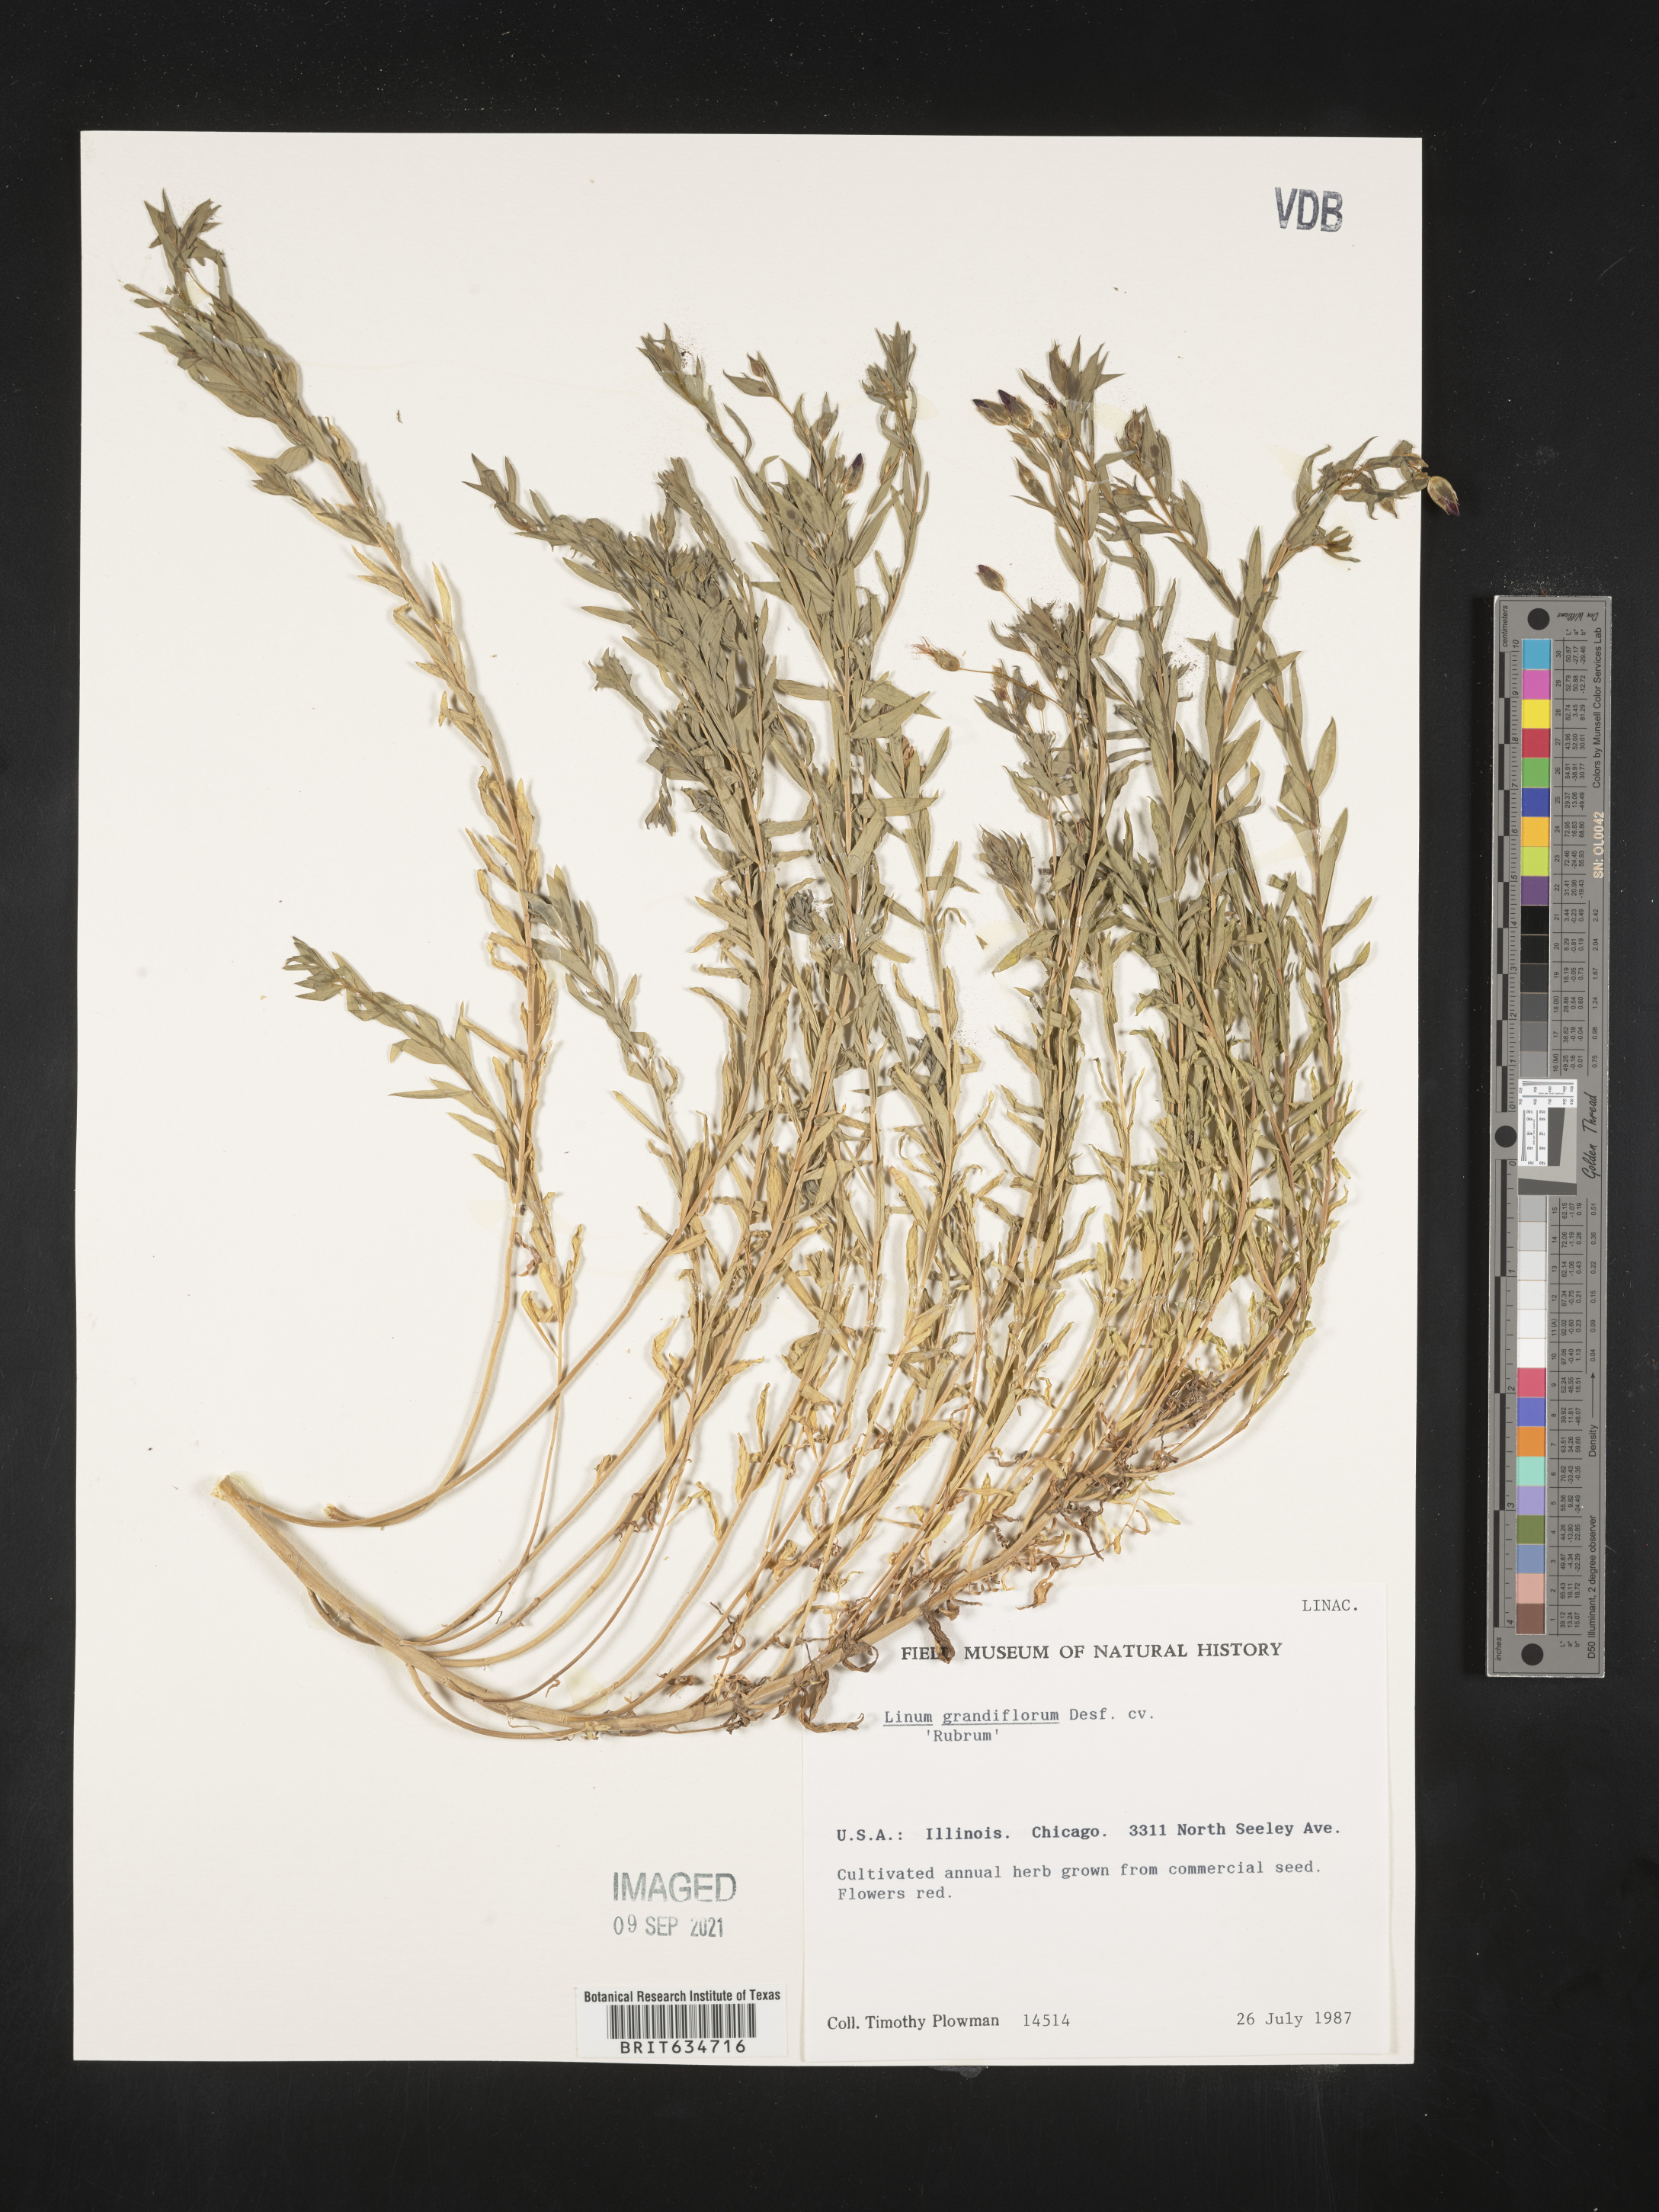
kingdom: Plantae
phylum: Tracheophyta
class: Magnoliopsida
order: Malpighiales
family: Linaceae
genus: Linum
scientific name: Linum
